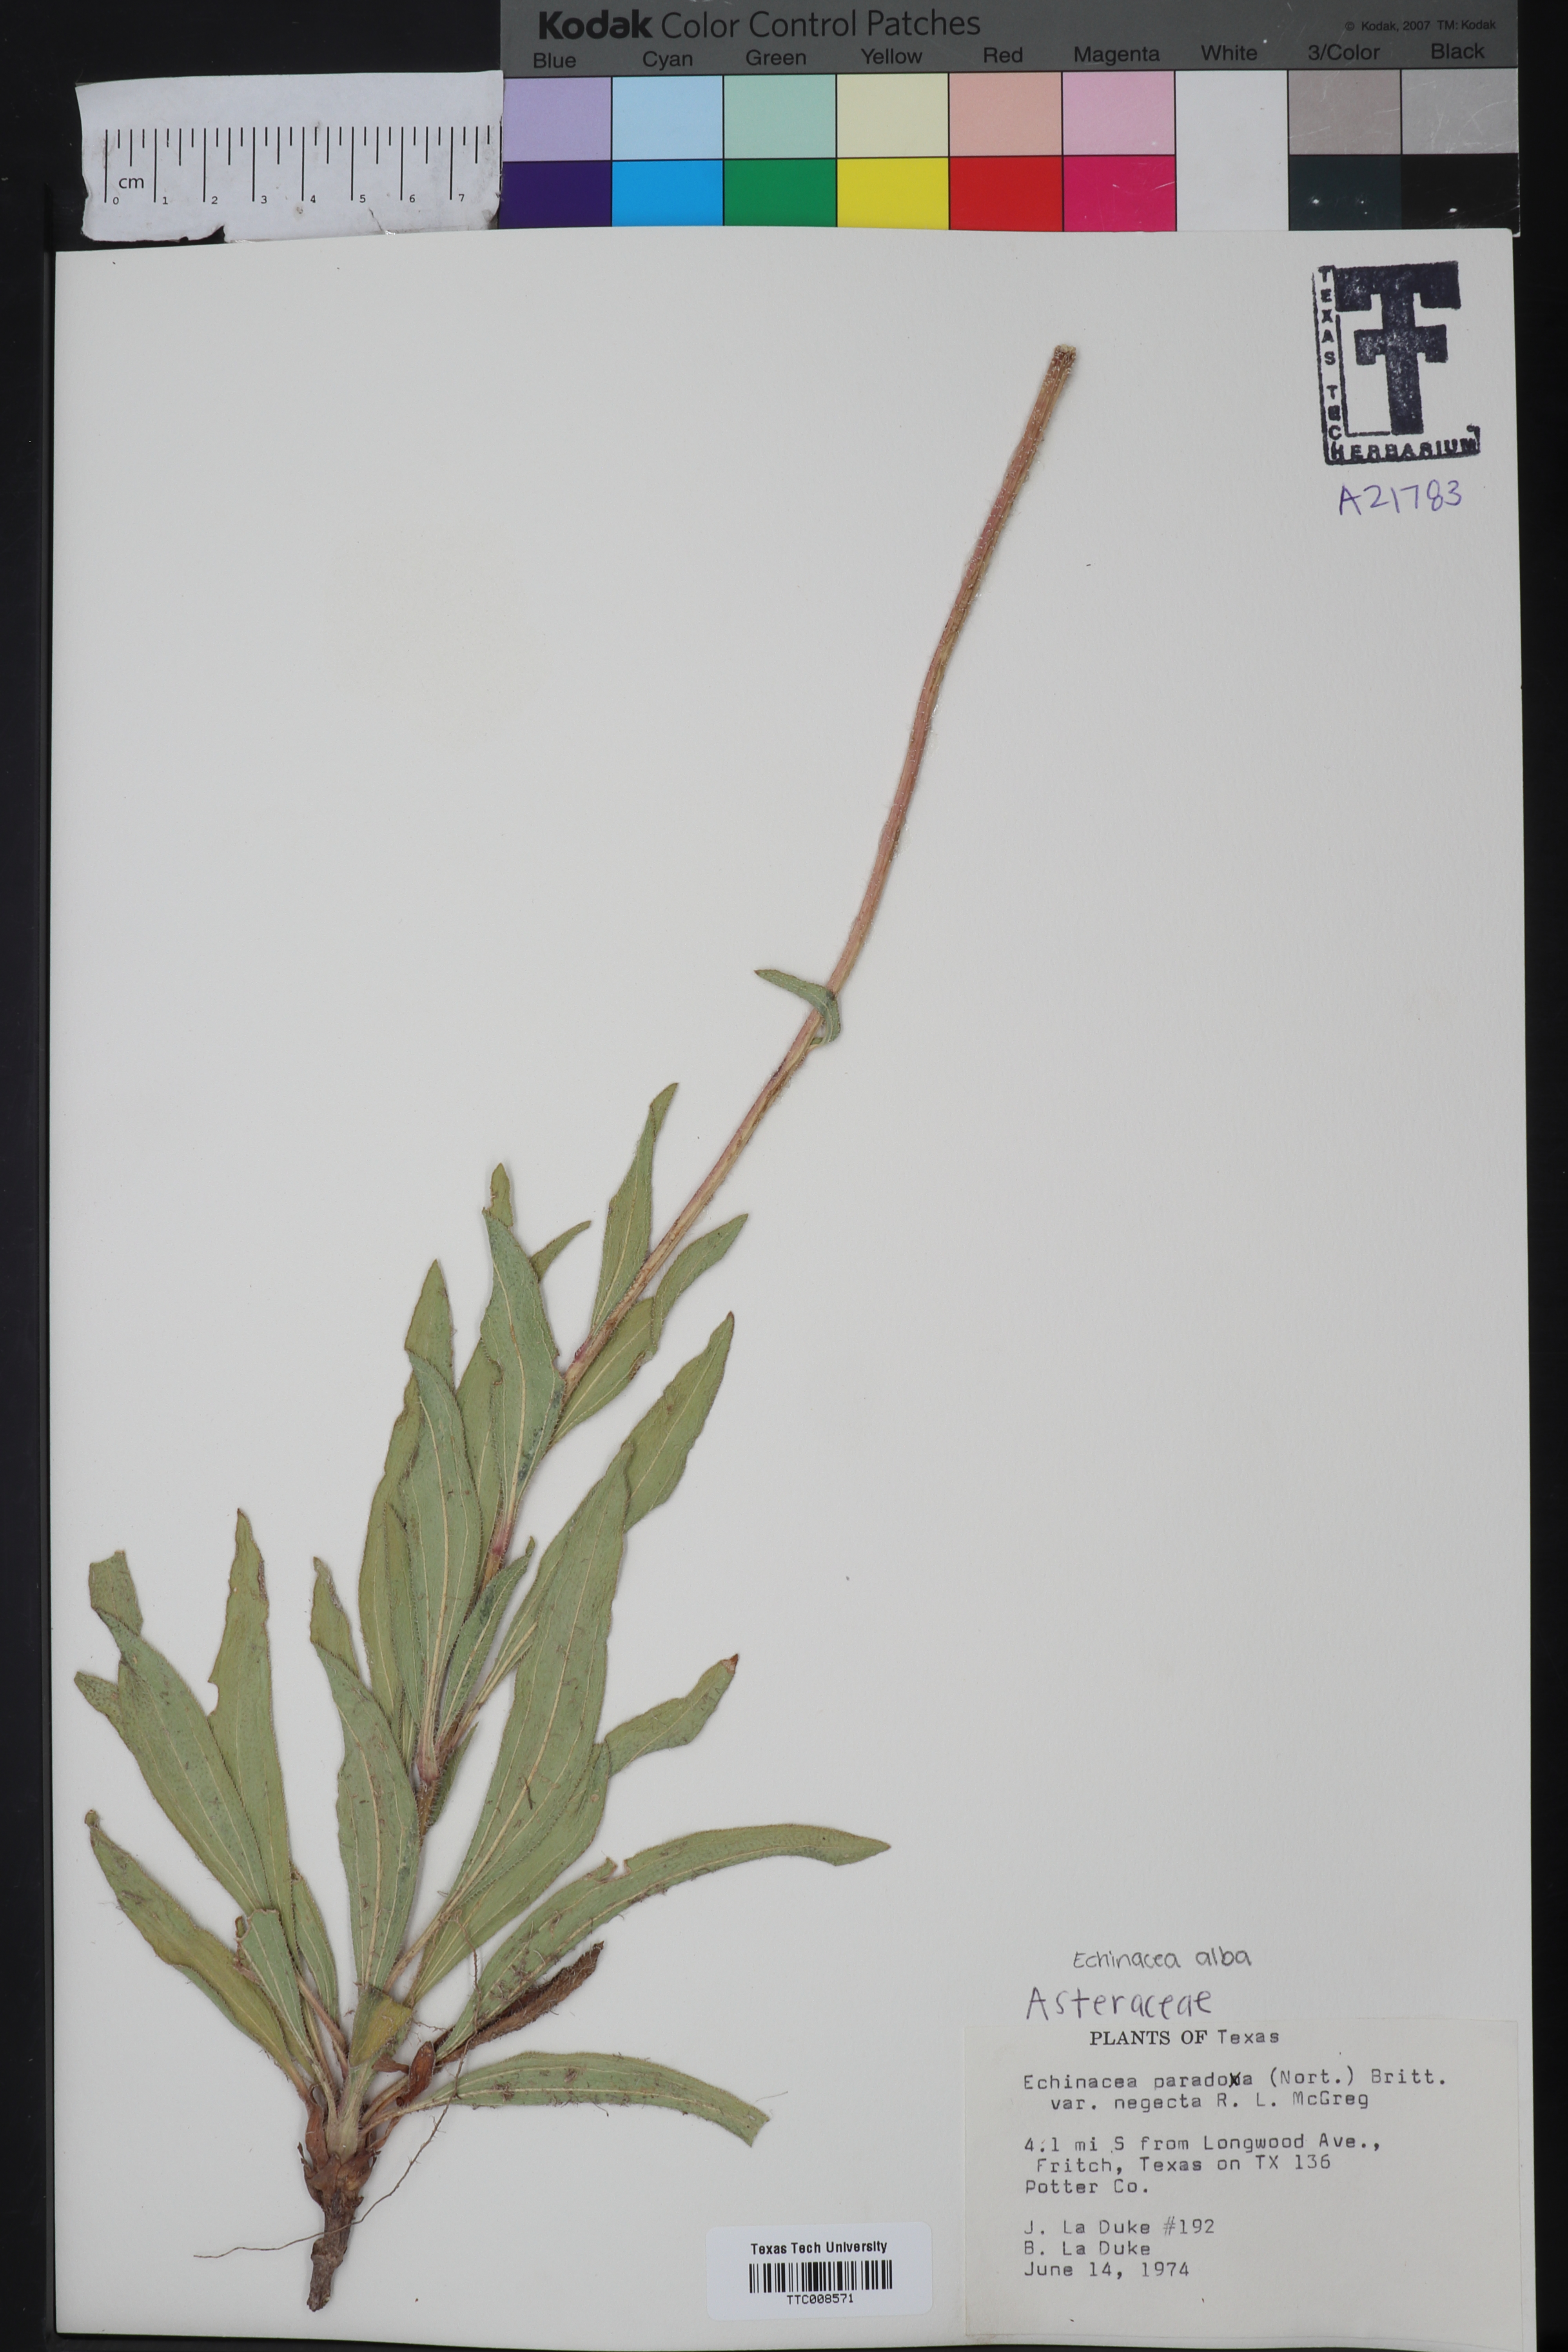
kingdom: Plantae
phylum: Tracheophyta
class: Magnoliopsida
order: Asterales
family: Asteraceae
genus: Echinacea
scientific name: Echinacea paradoxa
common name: Bush's purple-coneflower
